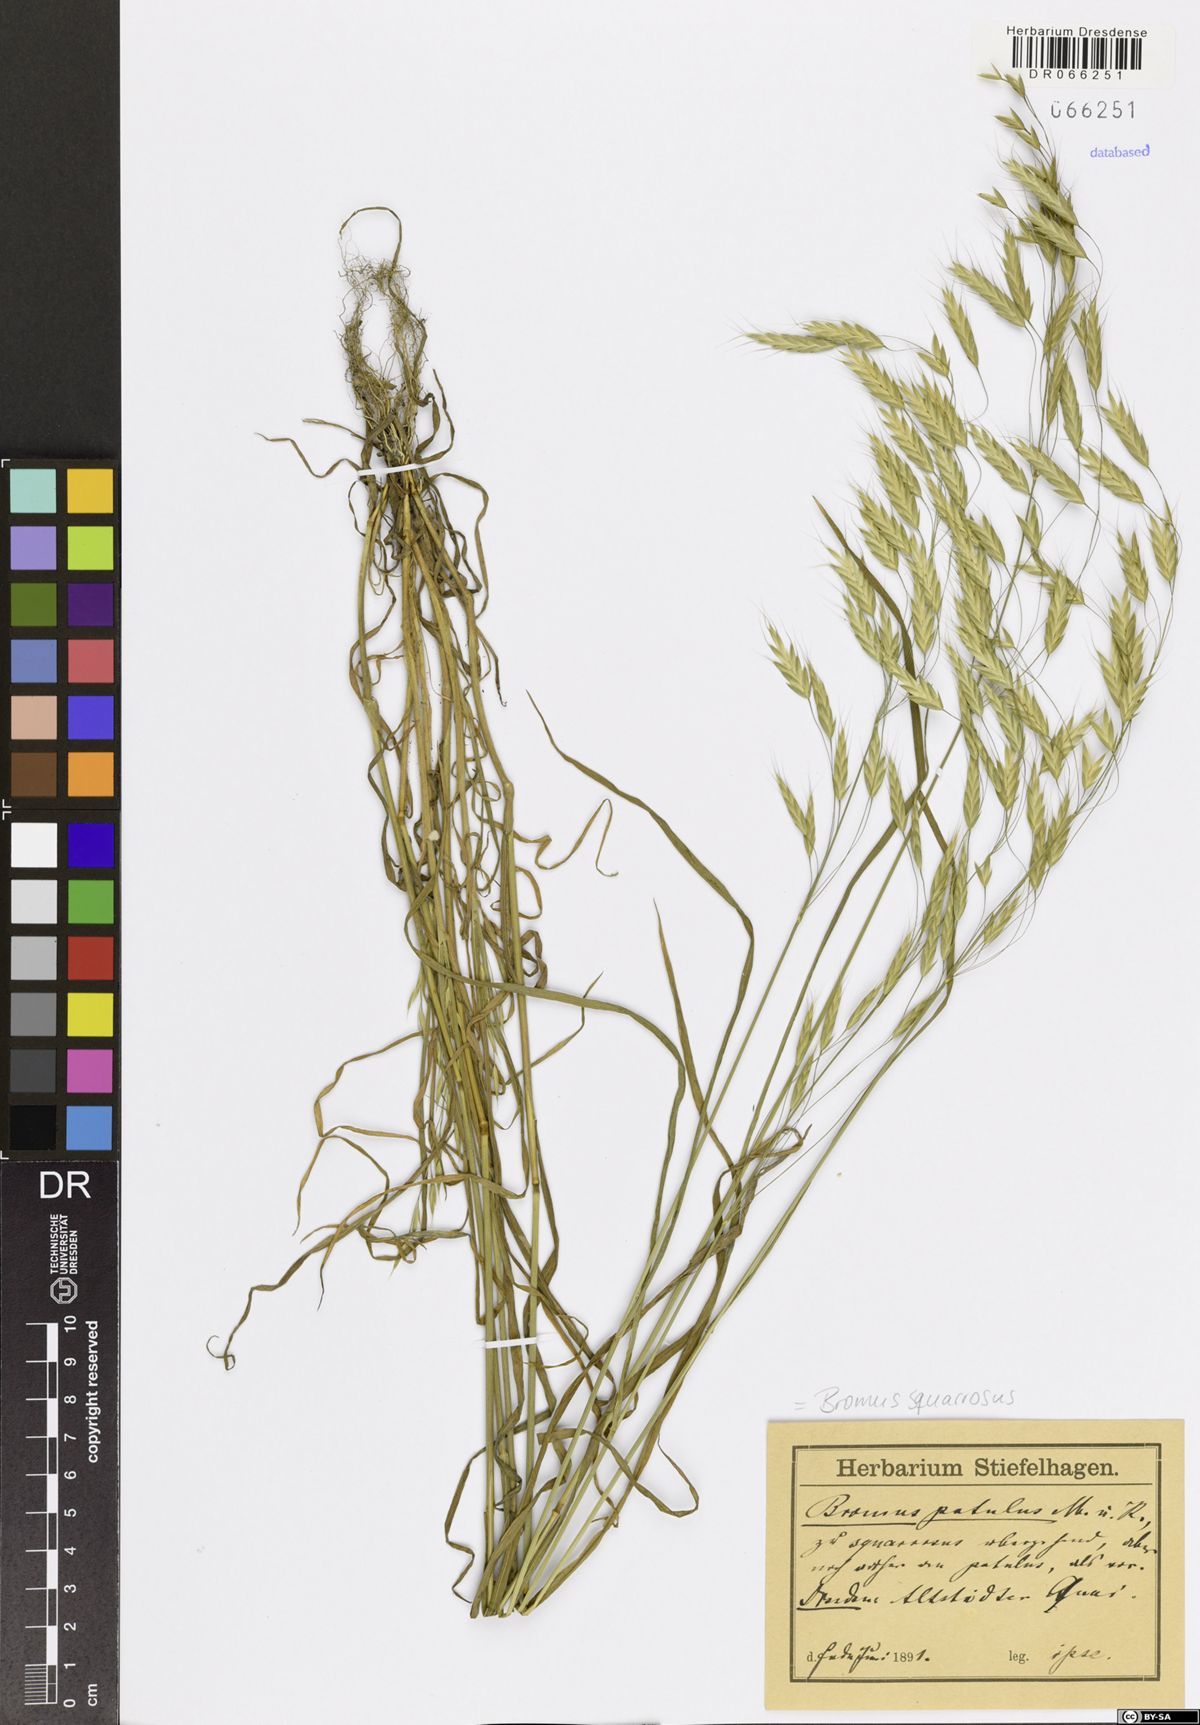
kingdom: Plantae
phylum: Tracheophyta
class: Liliopsida
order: Poales
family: Poaceae
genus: Bromus
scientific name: Bromus squarrosus
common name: Corn brome
